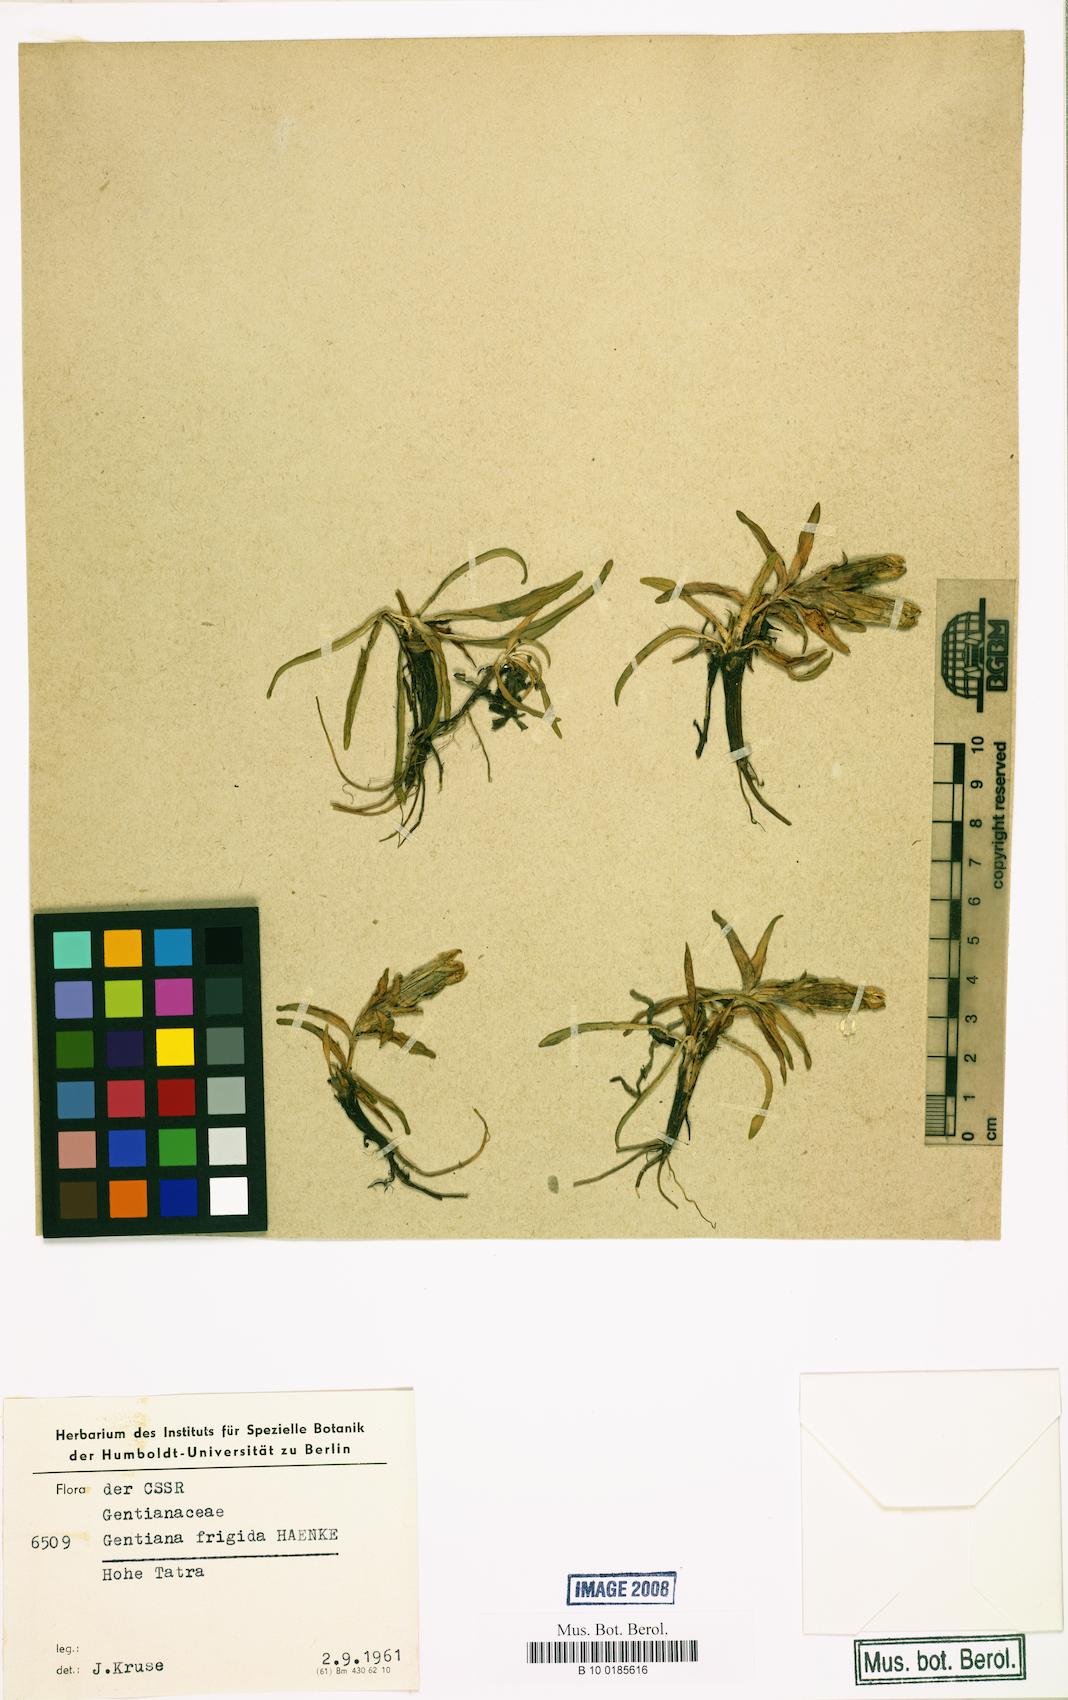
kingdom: Plantae
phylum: Tracheophyta
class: Magnoliopsida
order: Gentianales
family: Gentianaceae
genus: Gentiana
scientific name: Gentiana frigida
